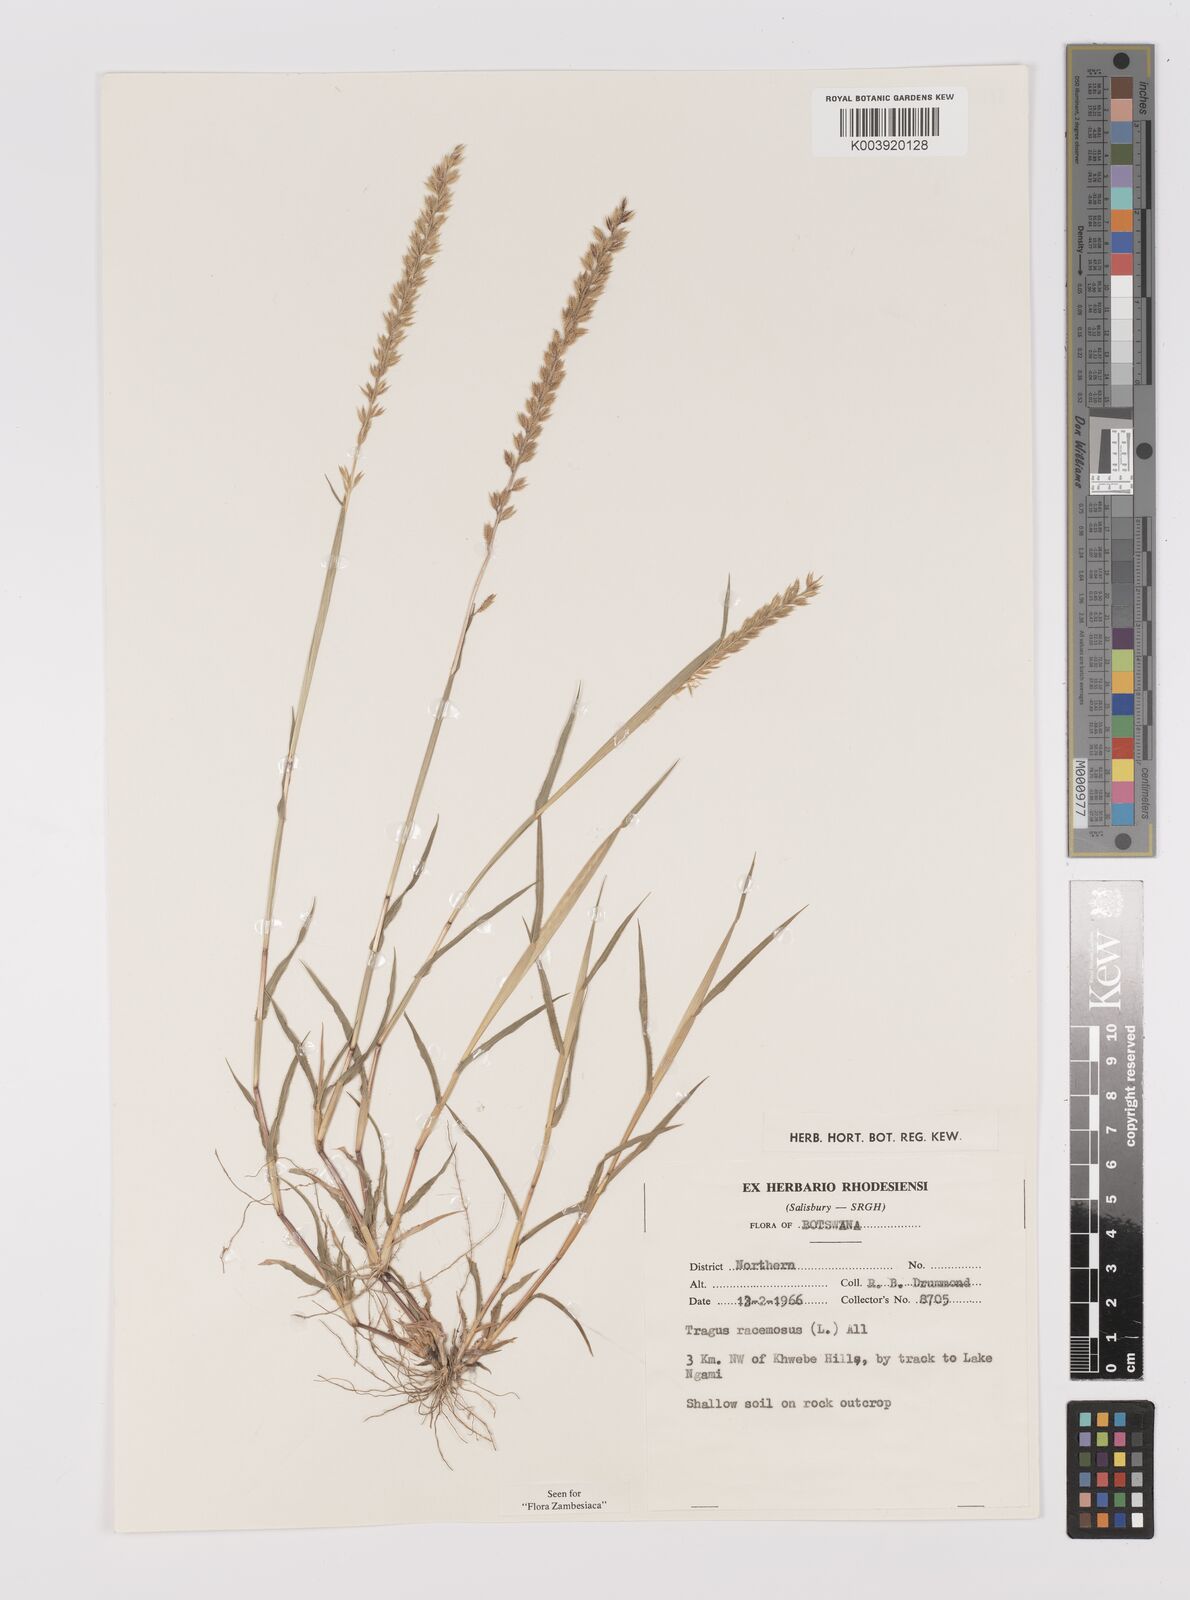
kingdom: Plantae
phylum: Tracheophyta
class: Liliopsida
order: Poales
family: Poaceae
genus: Tragus
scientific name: Tragus racemosus
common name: European bur-grass
